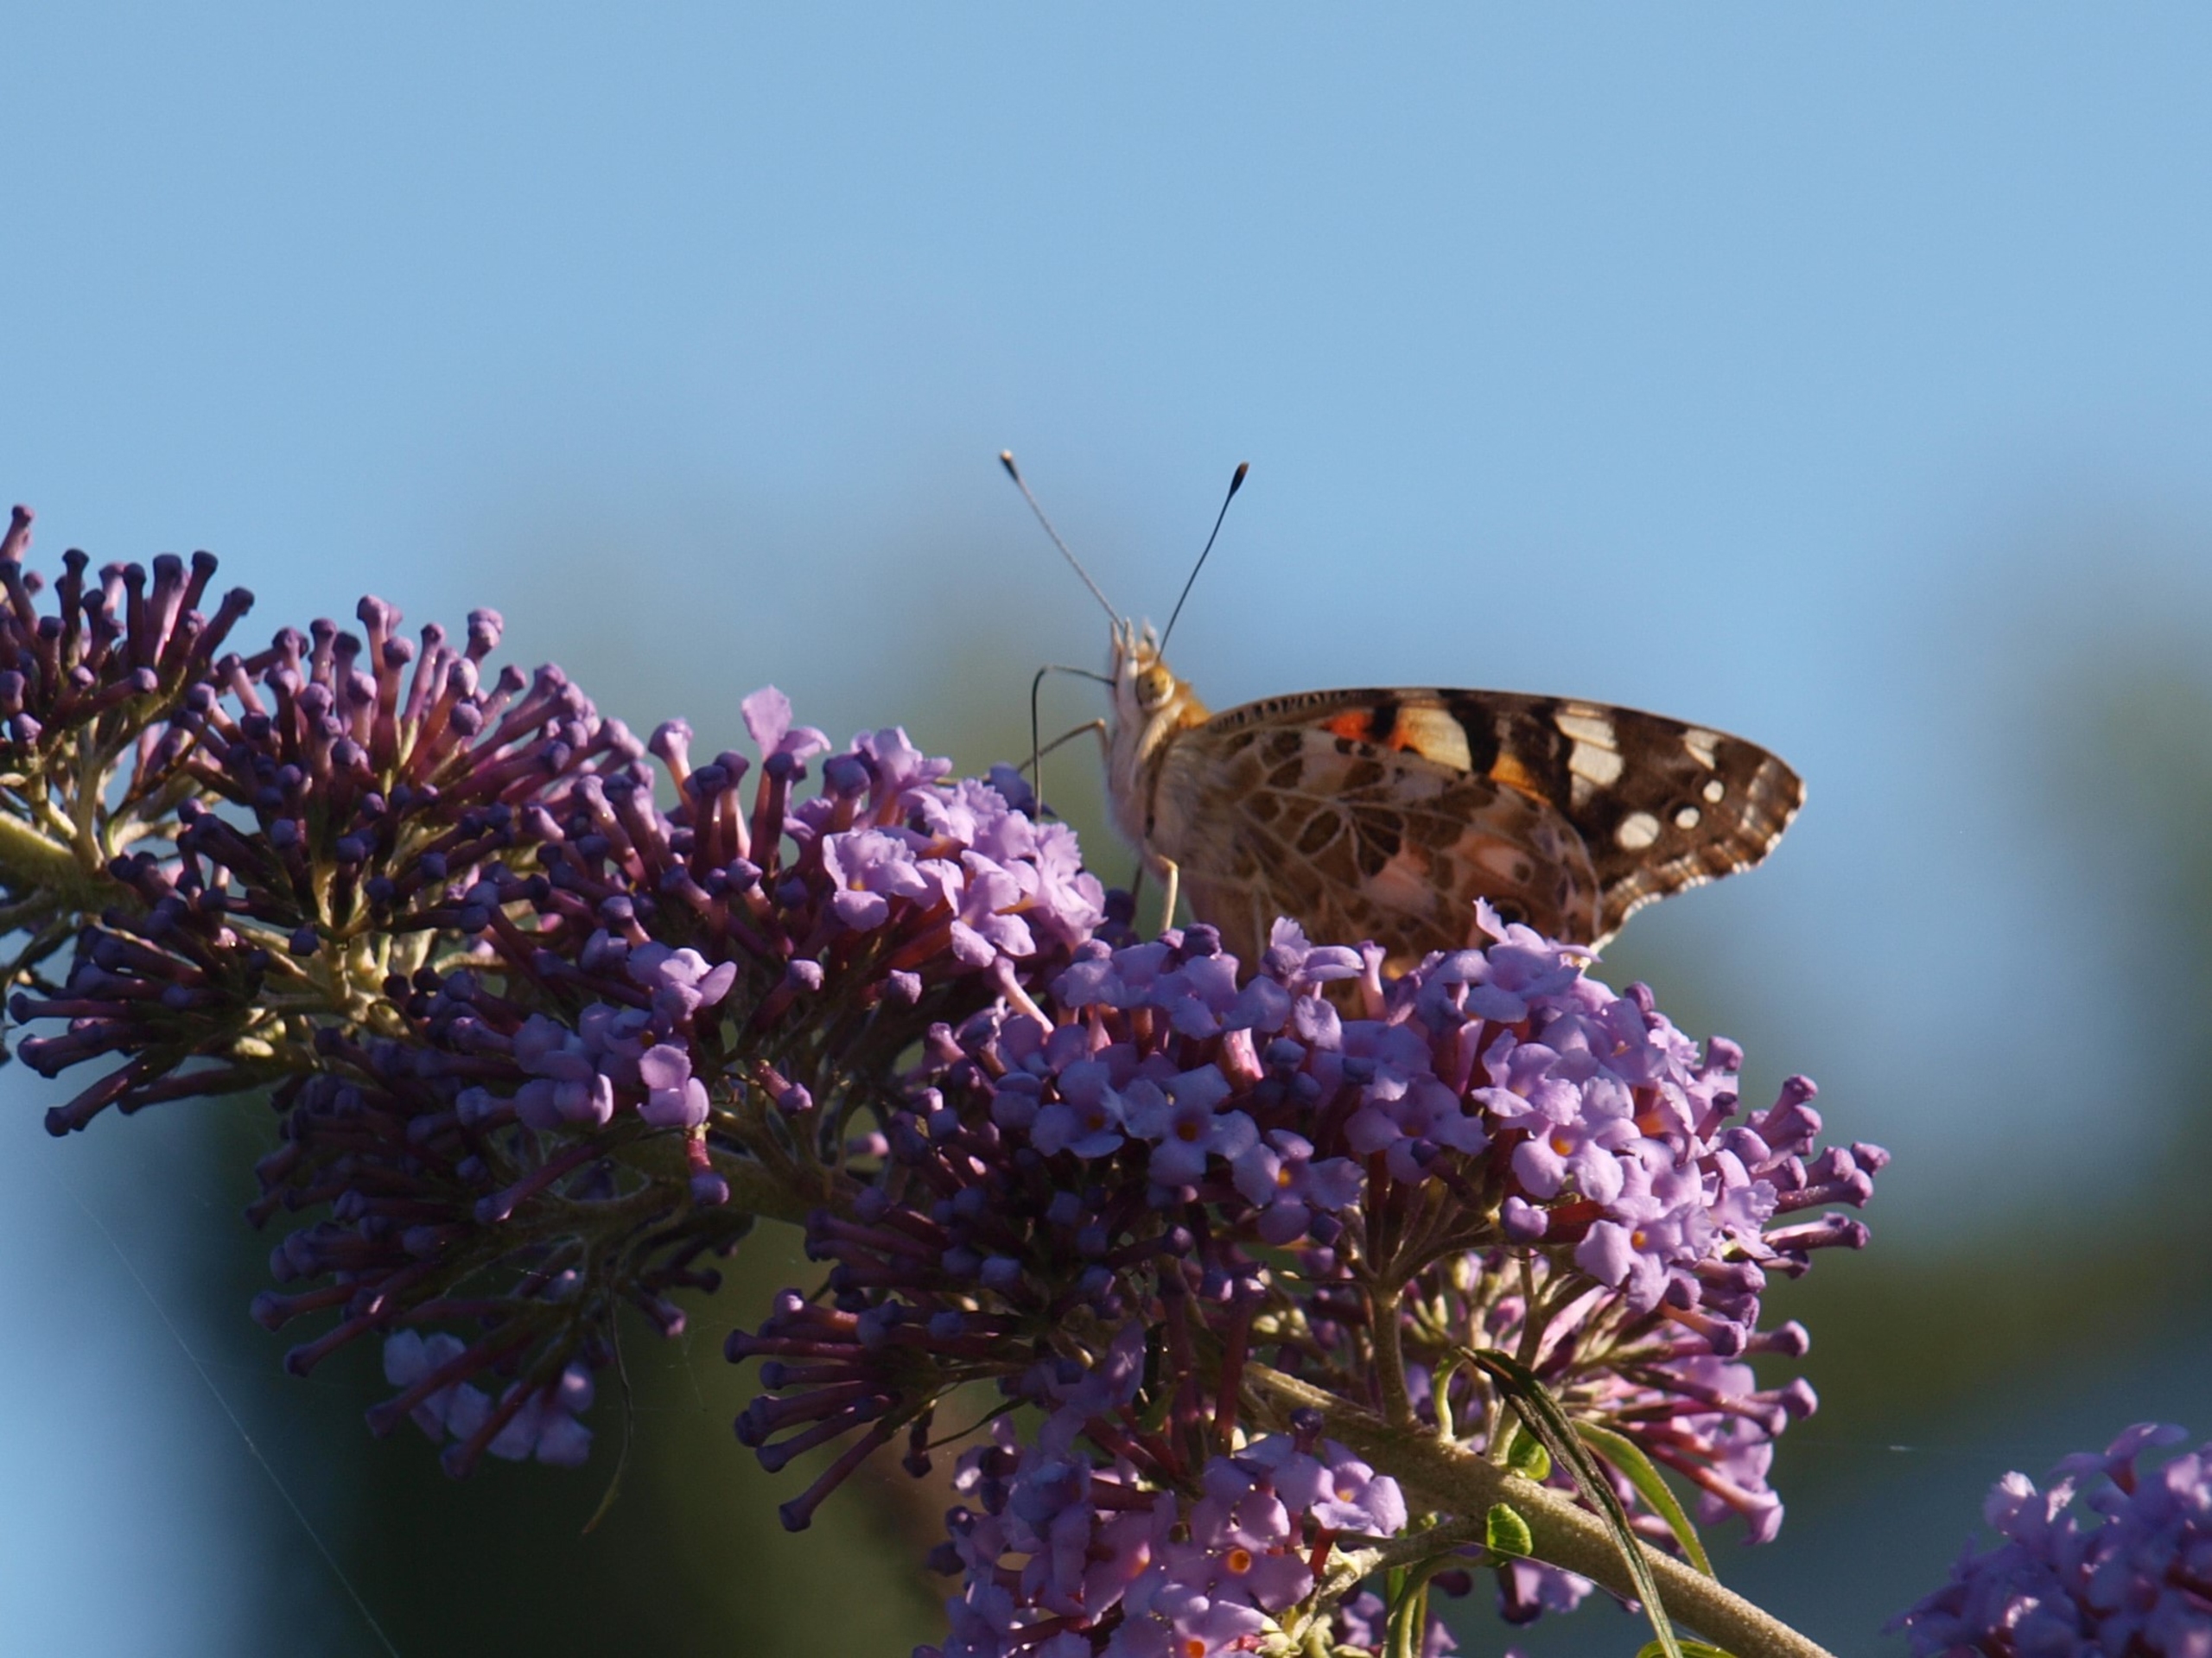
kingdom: Animalia
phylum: Arthropoda
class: Insecta
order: Lepidoptera
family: Nymphalidae
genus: Vanessa
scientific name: Vanessa cardui
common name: Tidselsommerfugl
